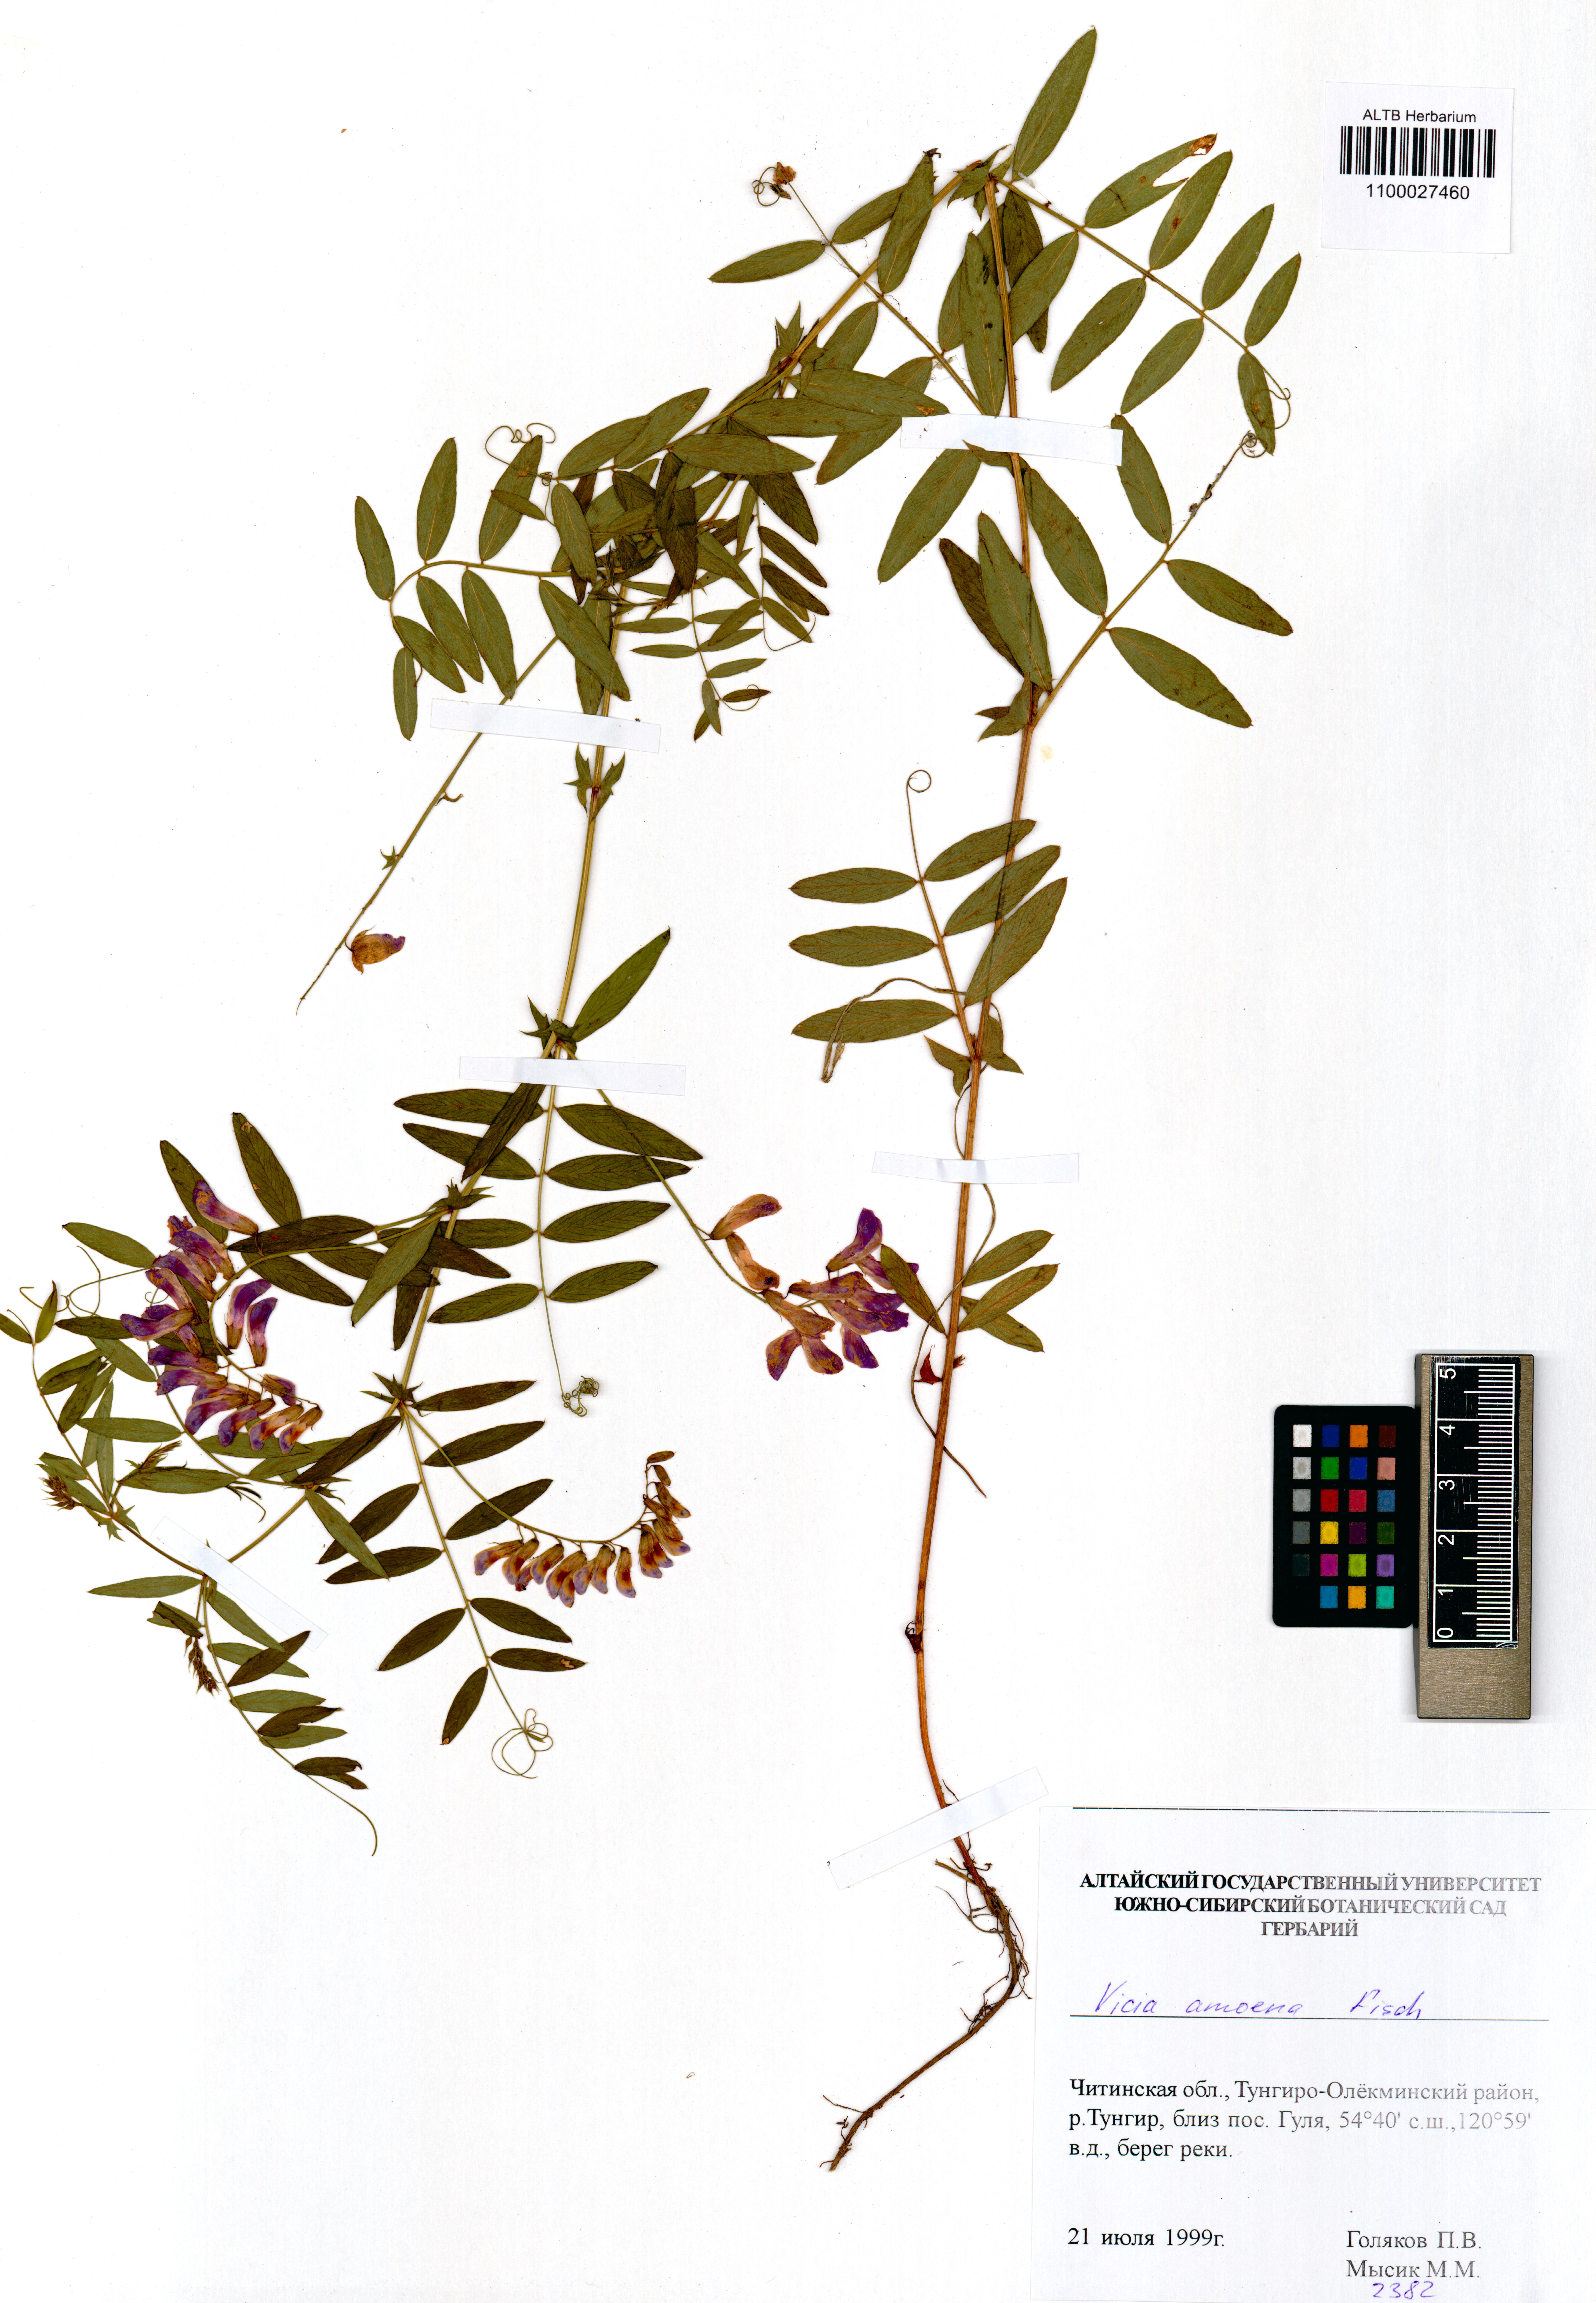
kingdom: Plantae
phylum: Tracheophyta
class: Magnoliopsida
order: Fabales
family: Fabaceae
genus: Vicia
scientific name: Vicia amoena
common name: Cheder ebs
